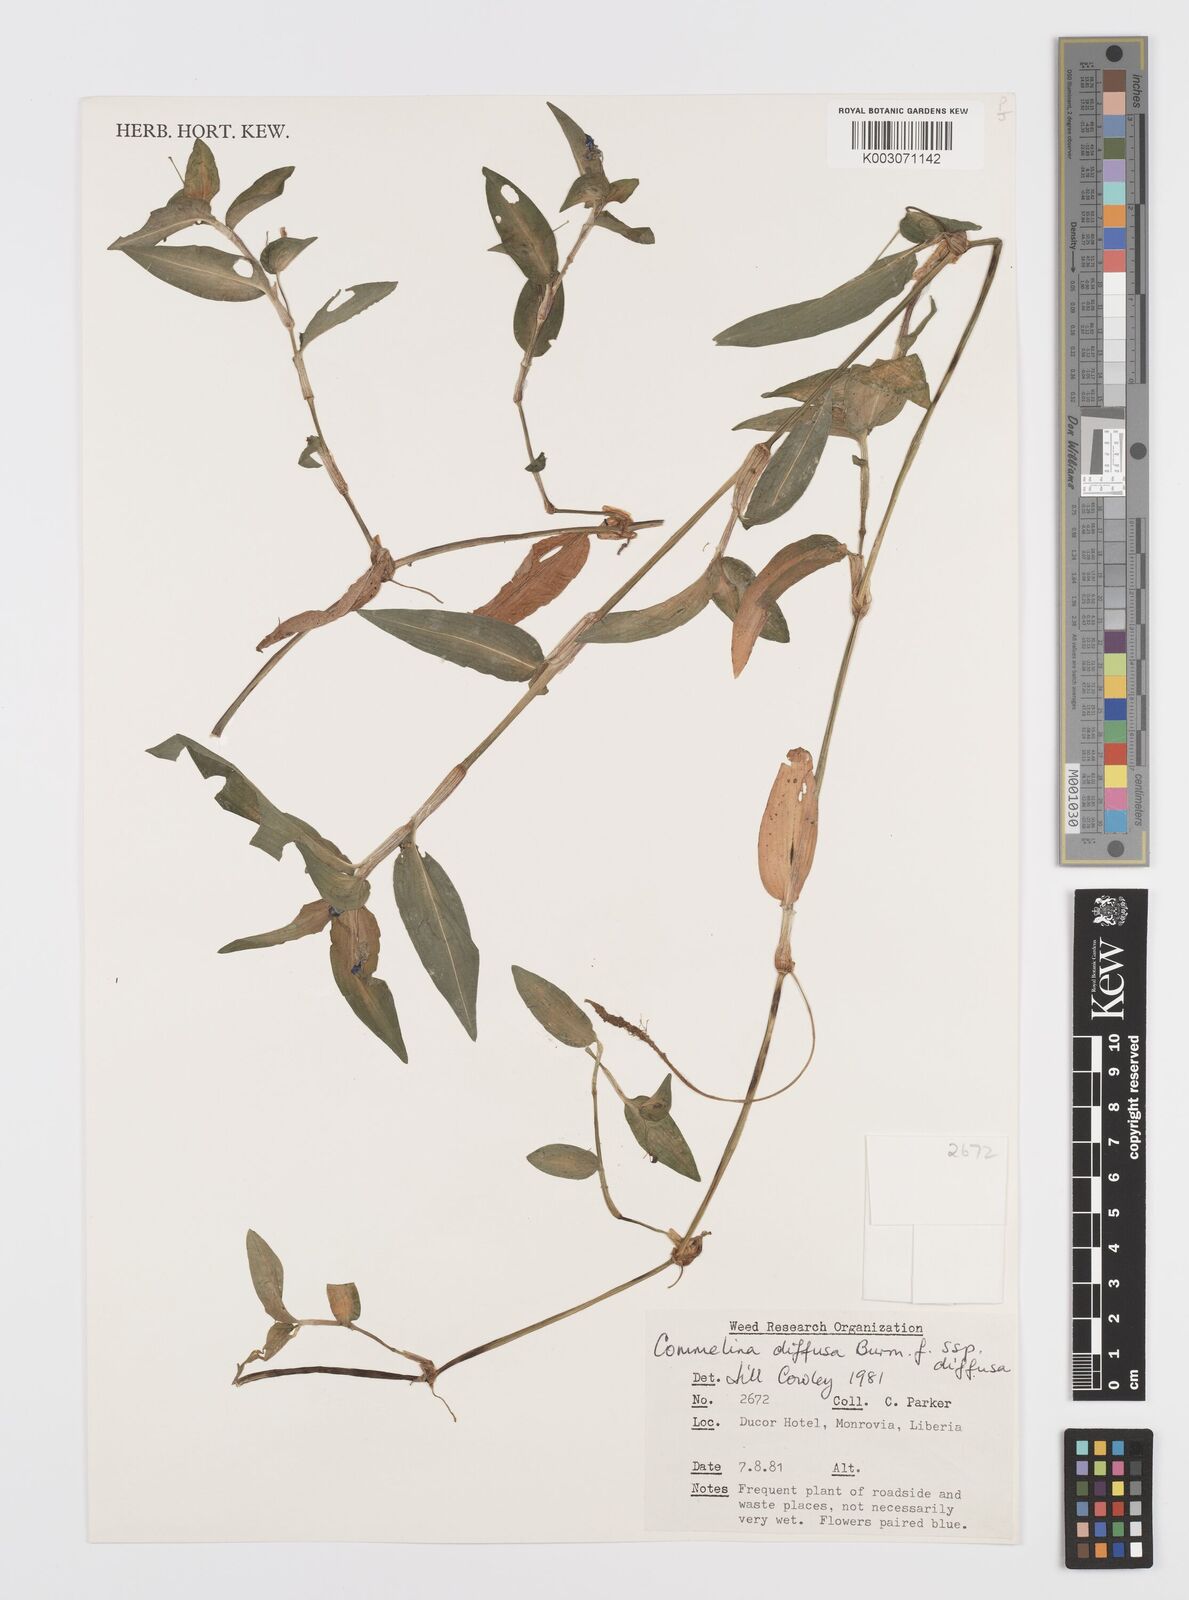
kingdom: Plantae
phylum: Tracheophyta
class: Liliopsida
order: Commelinales
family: Commelinaceae
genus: Commelina
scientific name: Commelina diffusa
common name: Climbing dayflower
